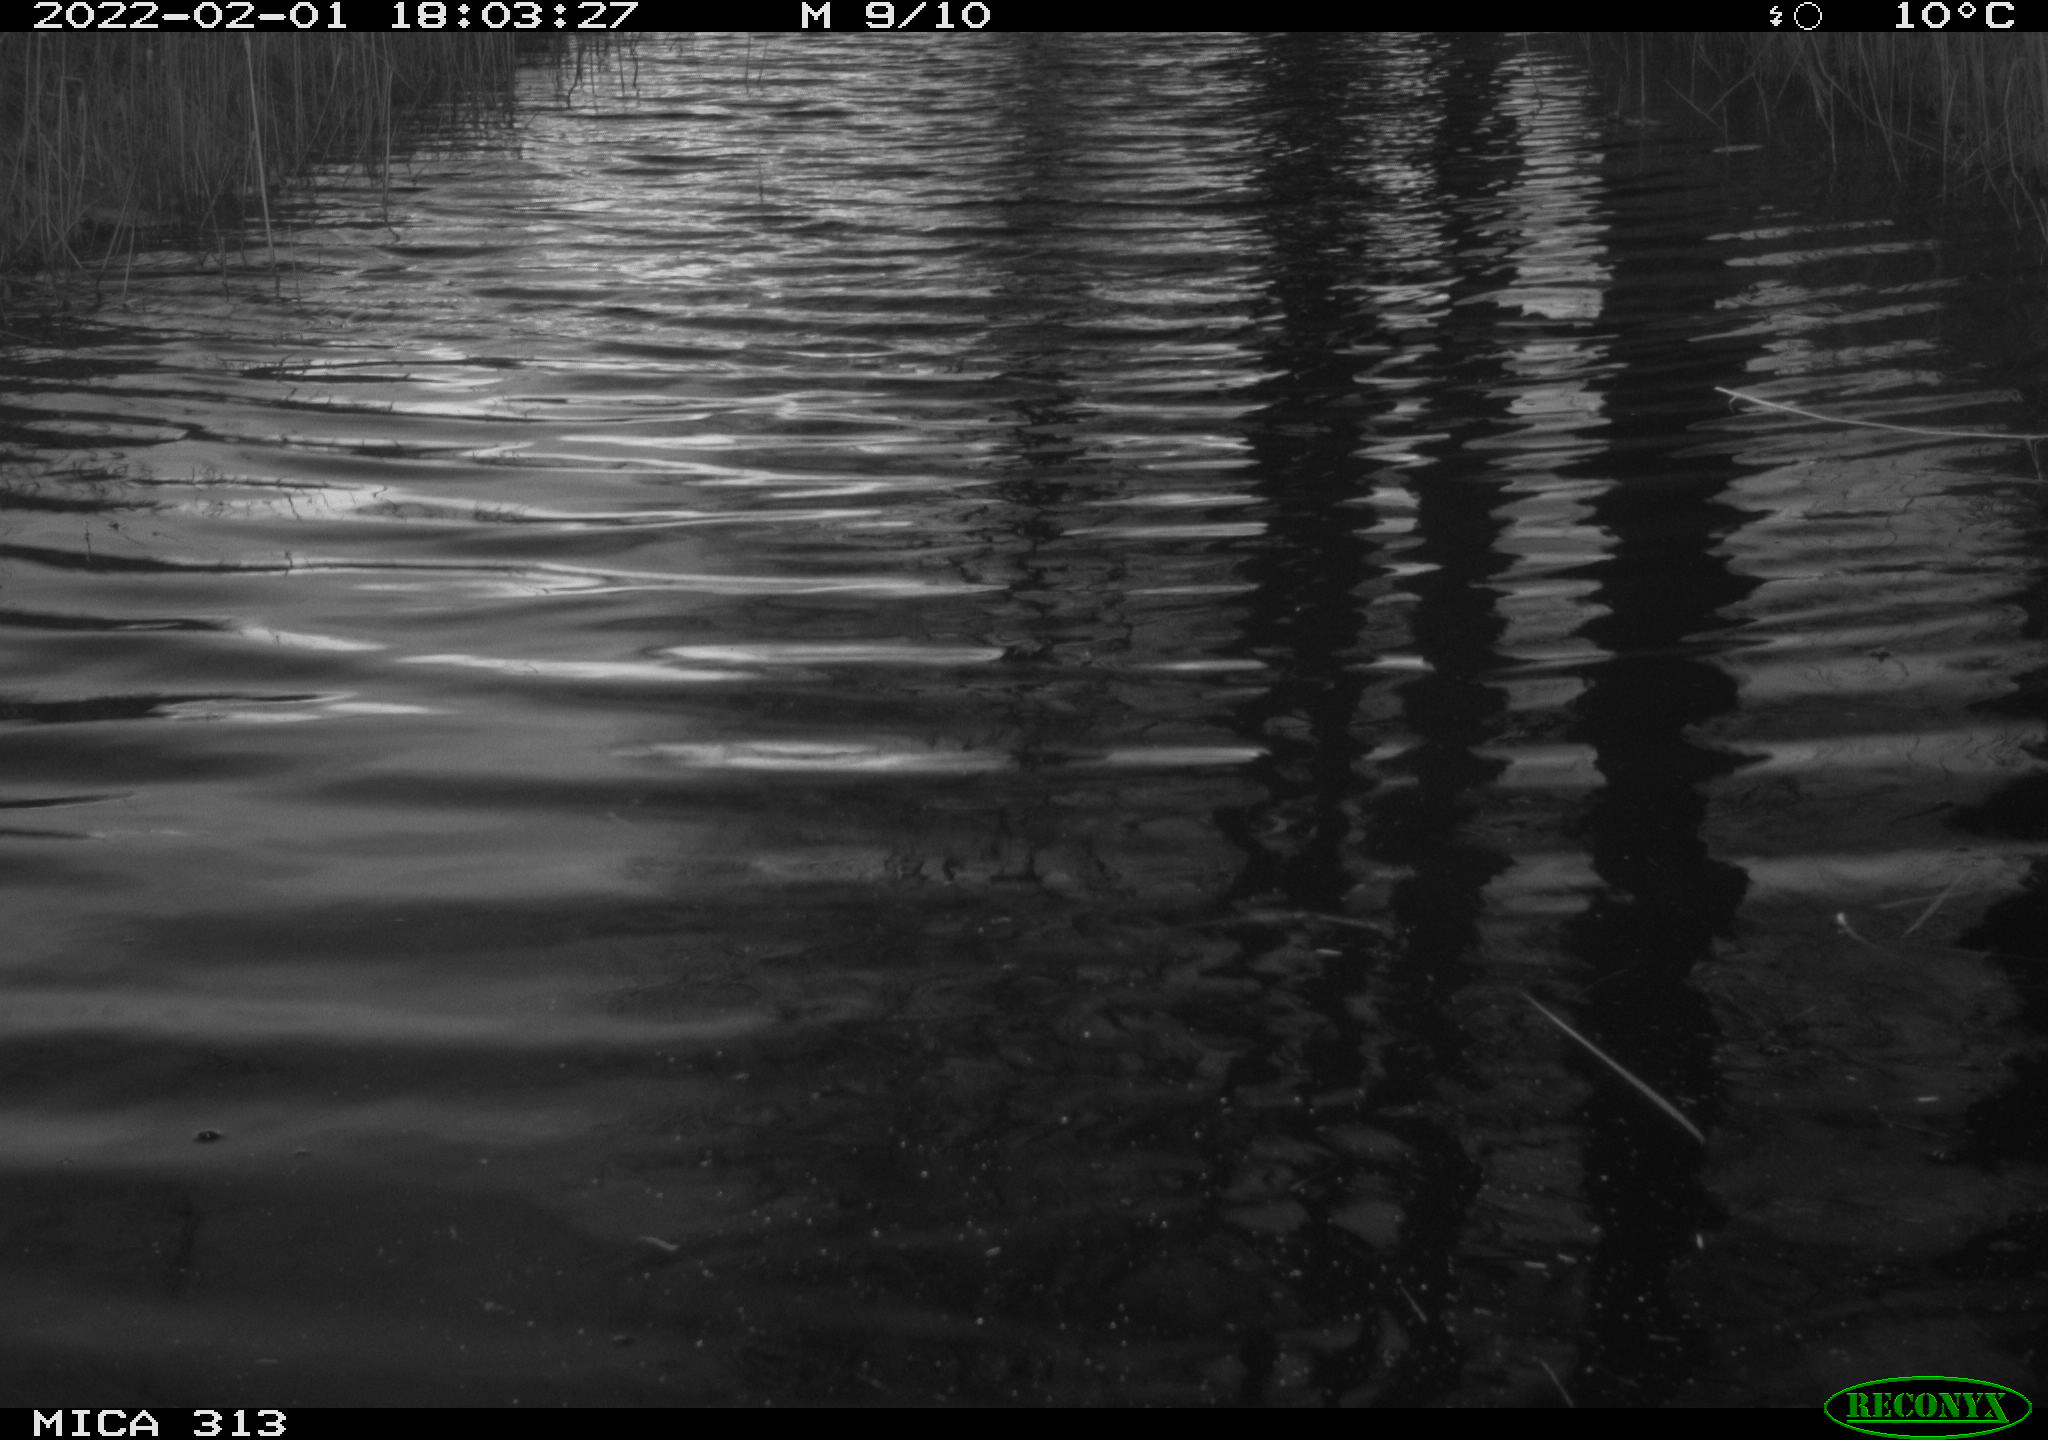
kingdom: Animalia
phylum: Chordata
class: Aves
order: Gruiformes
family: Rallidae
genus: Gallinula
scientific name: Gallinula chloropus
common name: Common moorhen
